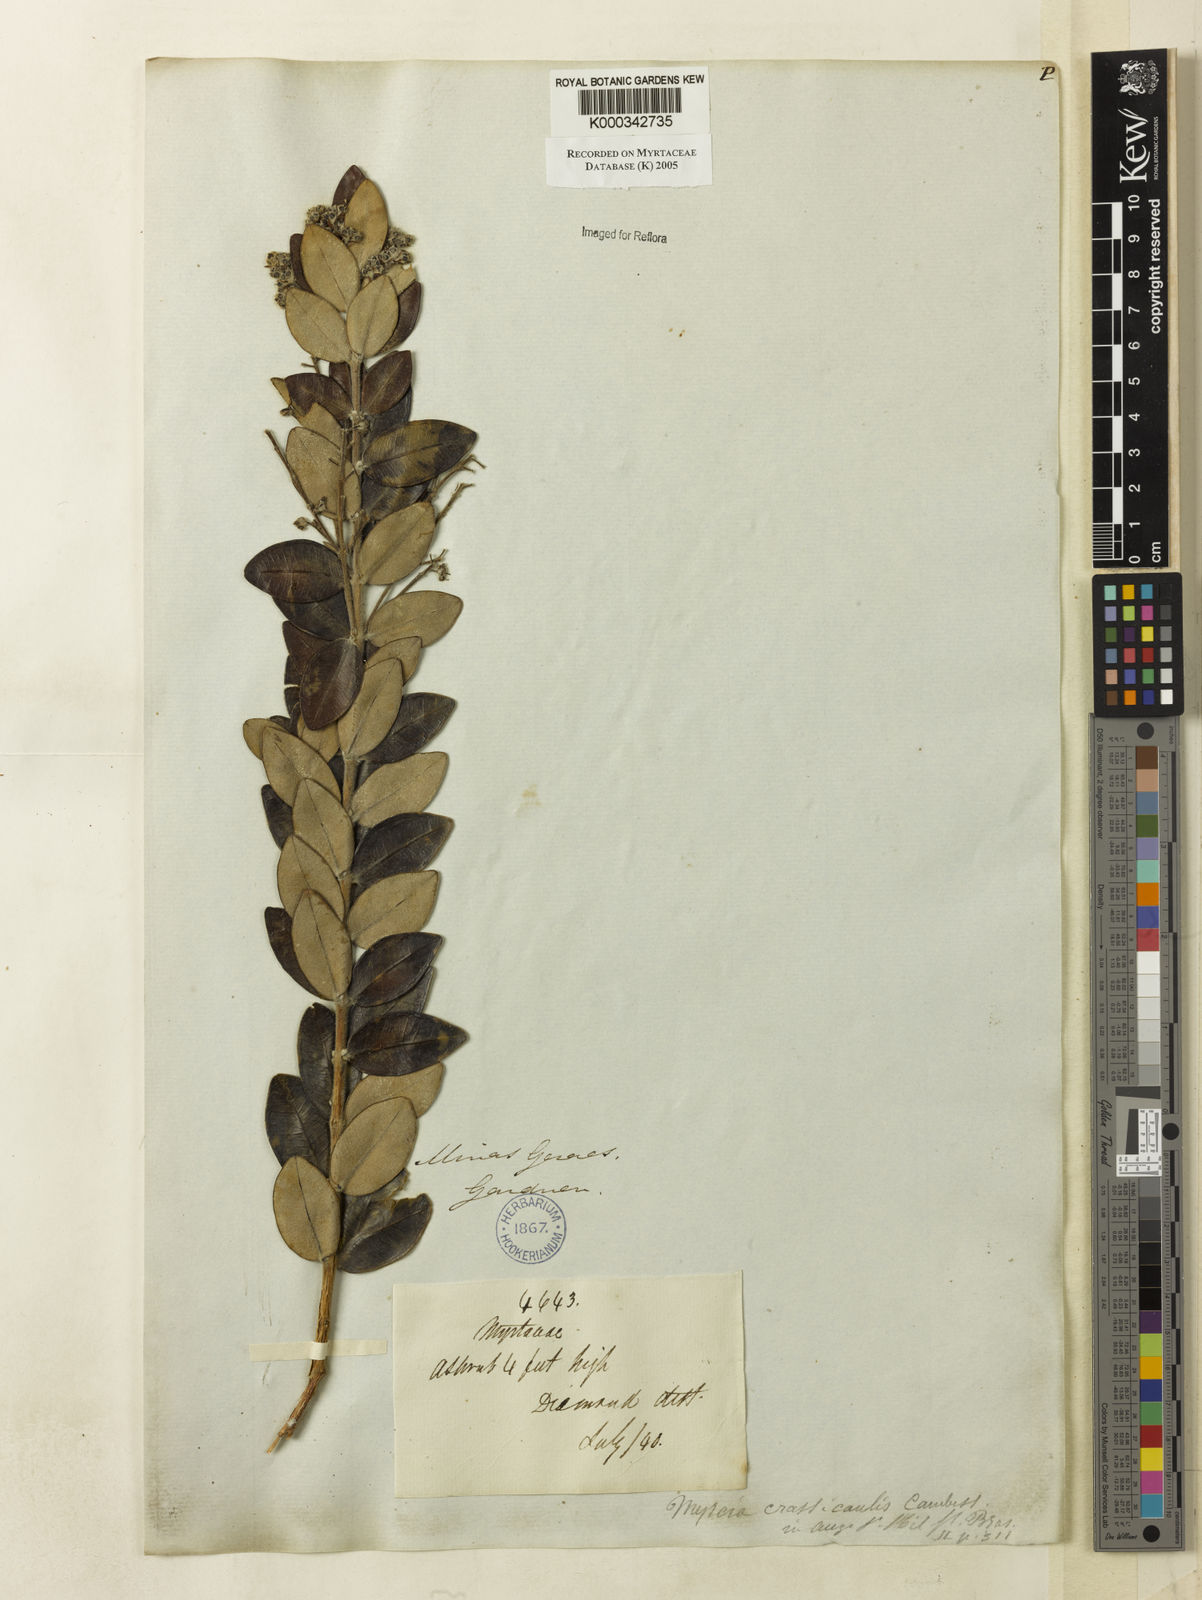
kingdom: Plantae
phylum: Tracheophyta
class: Magnoliopsida
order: Myrtales
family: Myrtaceae
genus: Myrcia
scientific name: Myrcia guianensis
